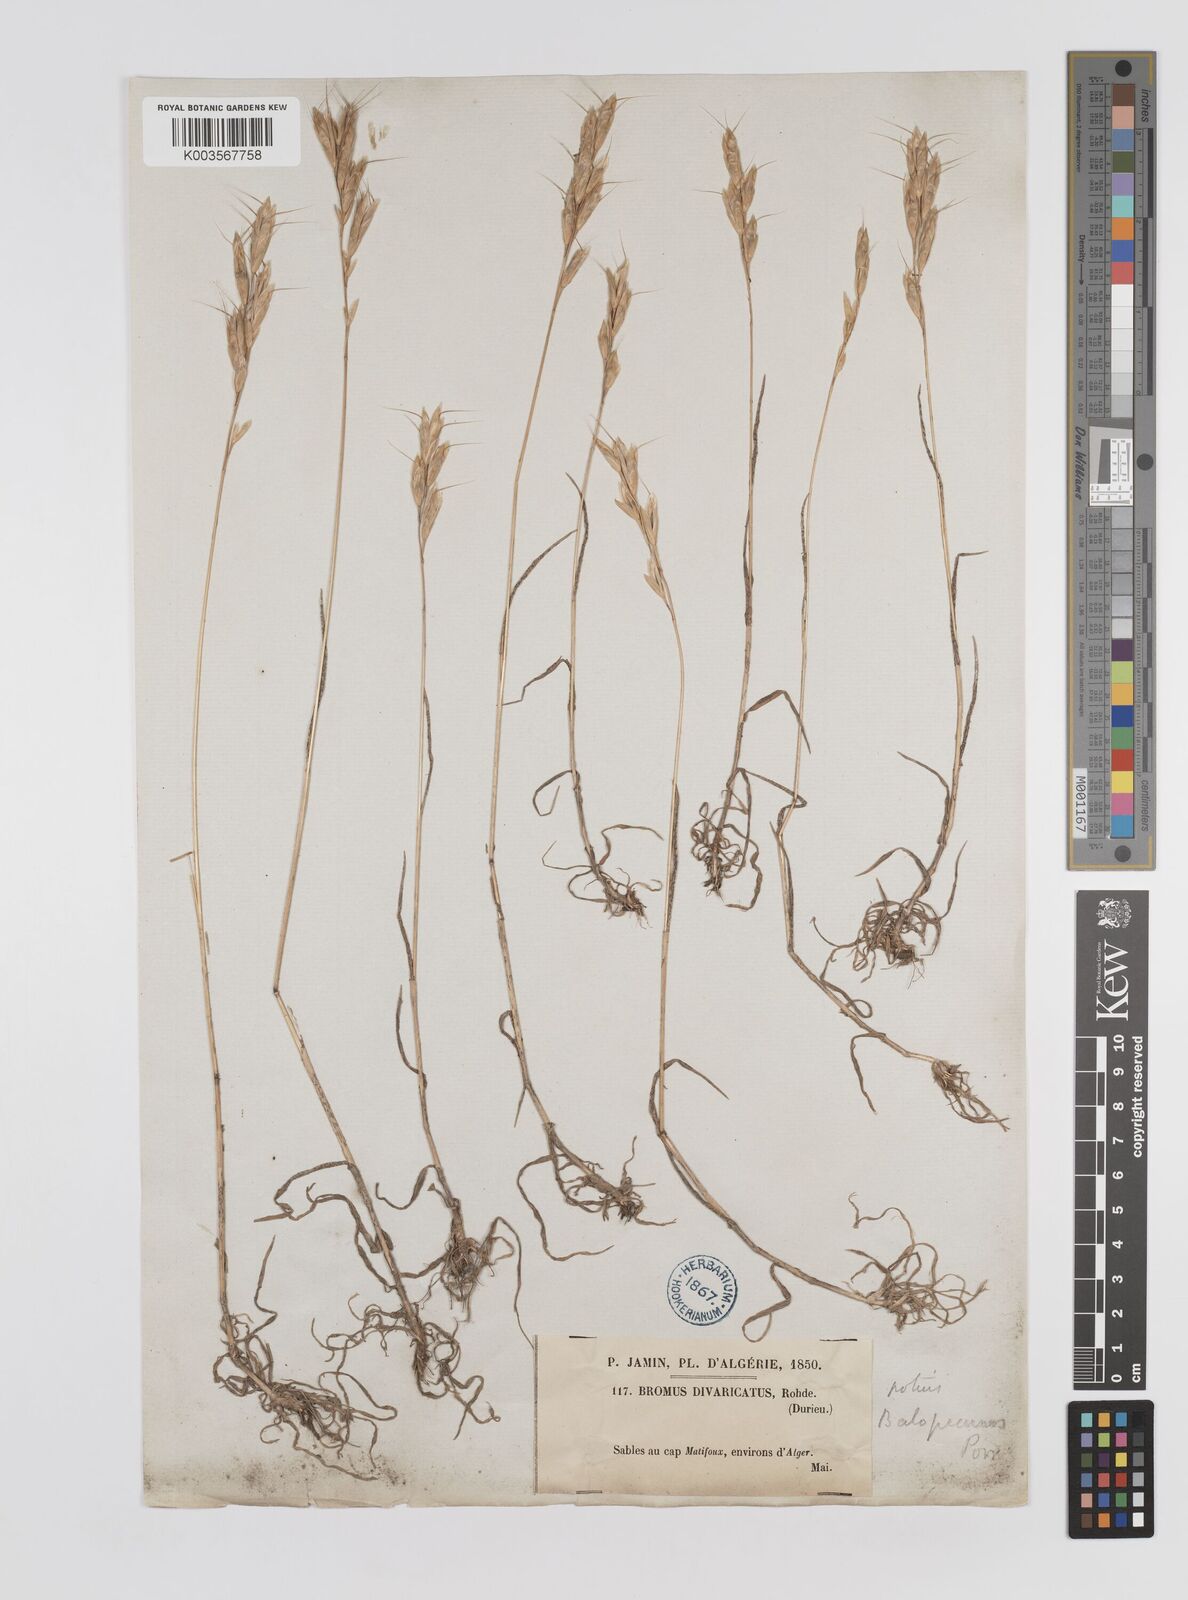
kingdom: Plantae
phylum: Tracheophyta
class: Liliopsida
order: Poales
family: Poaceae
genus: Bromus
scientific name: Bromus alopecuros
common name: Weedy brome
